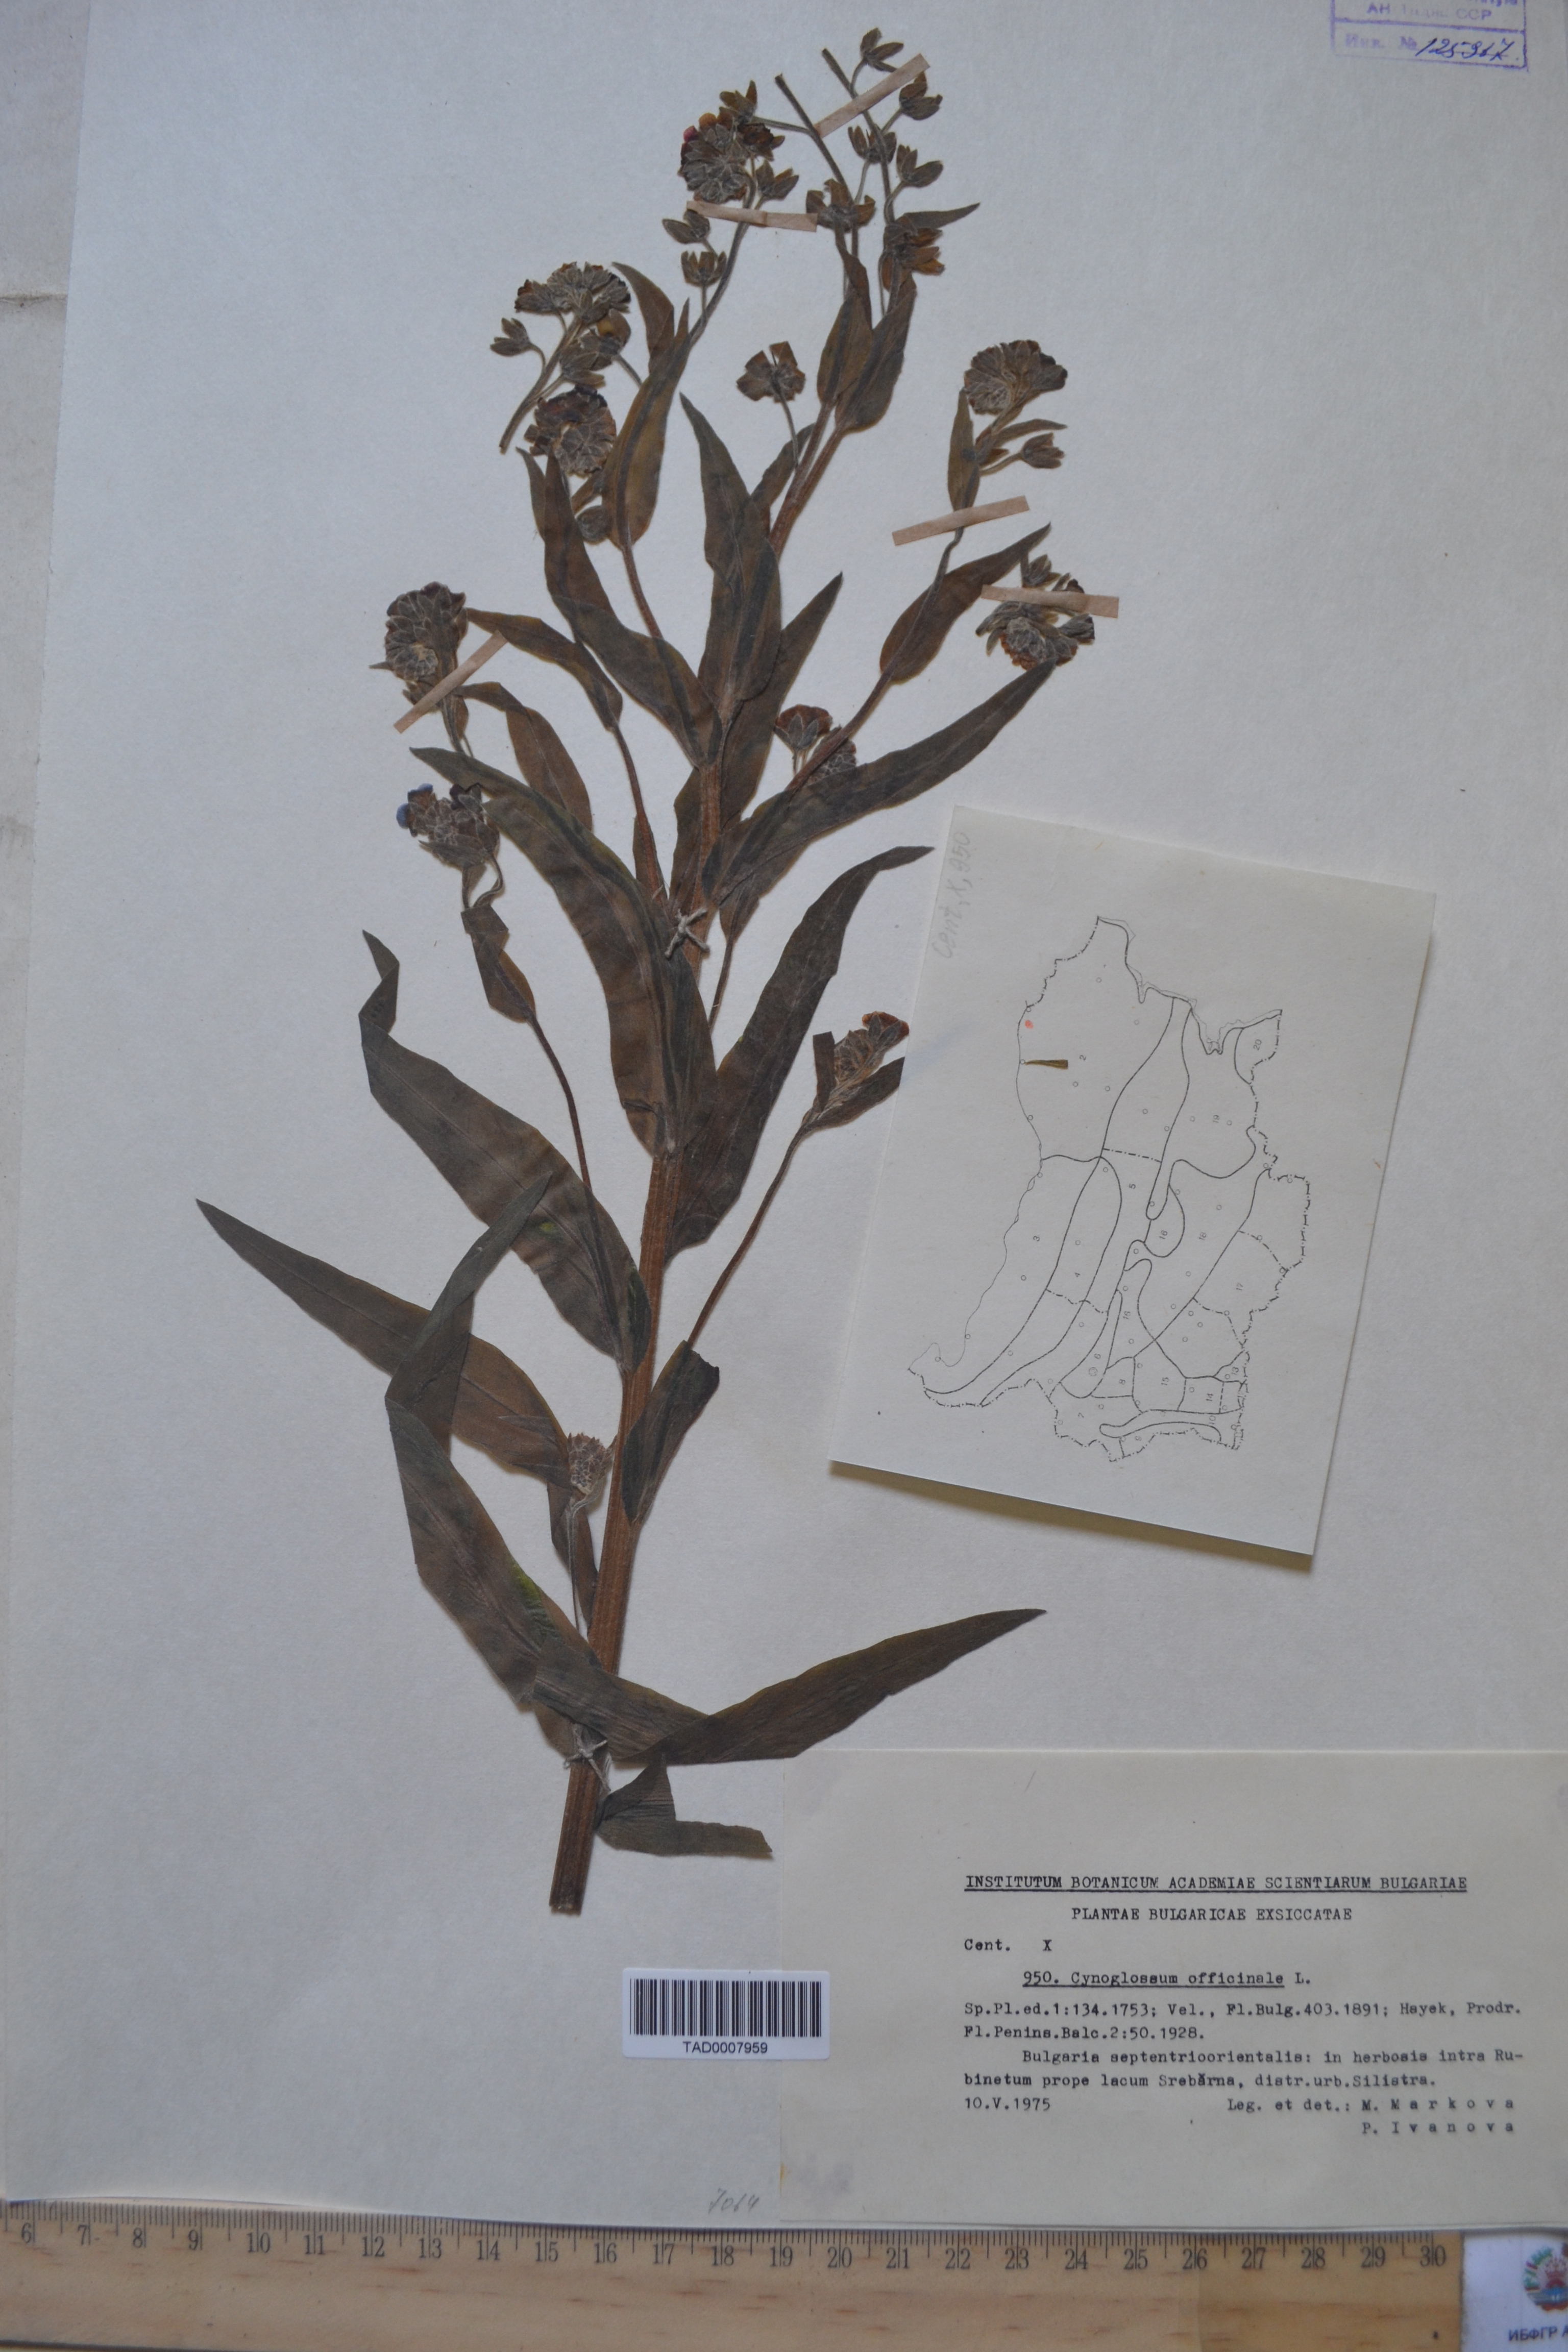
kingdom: Plantae
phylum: Tracheophyta
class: Magnoliopsida
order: Boraginales
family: Boraginaceae
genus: Cynoglossum
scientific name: Cynoglossum officinale
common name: Hound's-tongue
